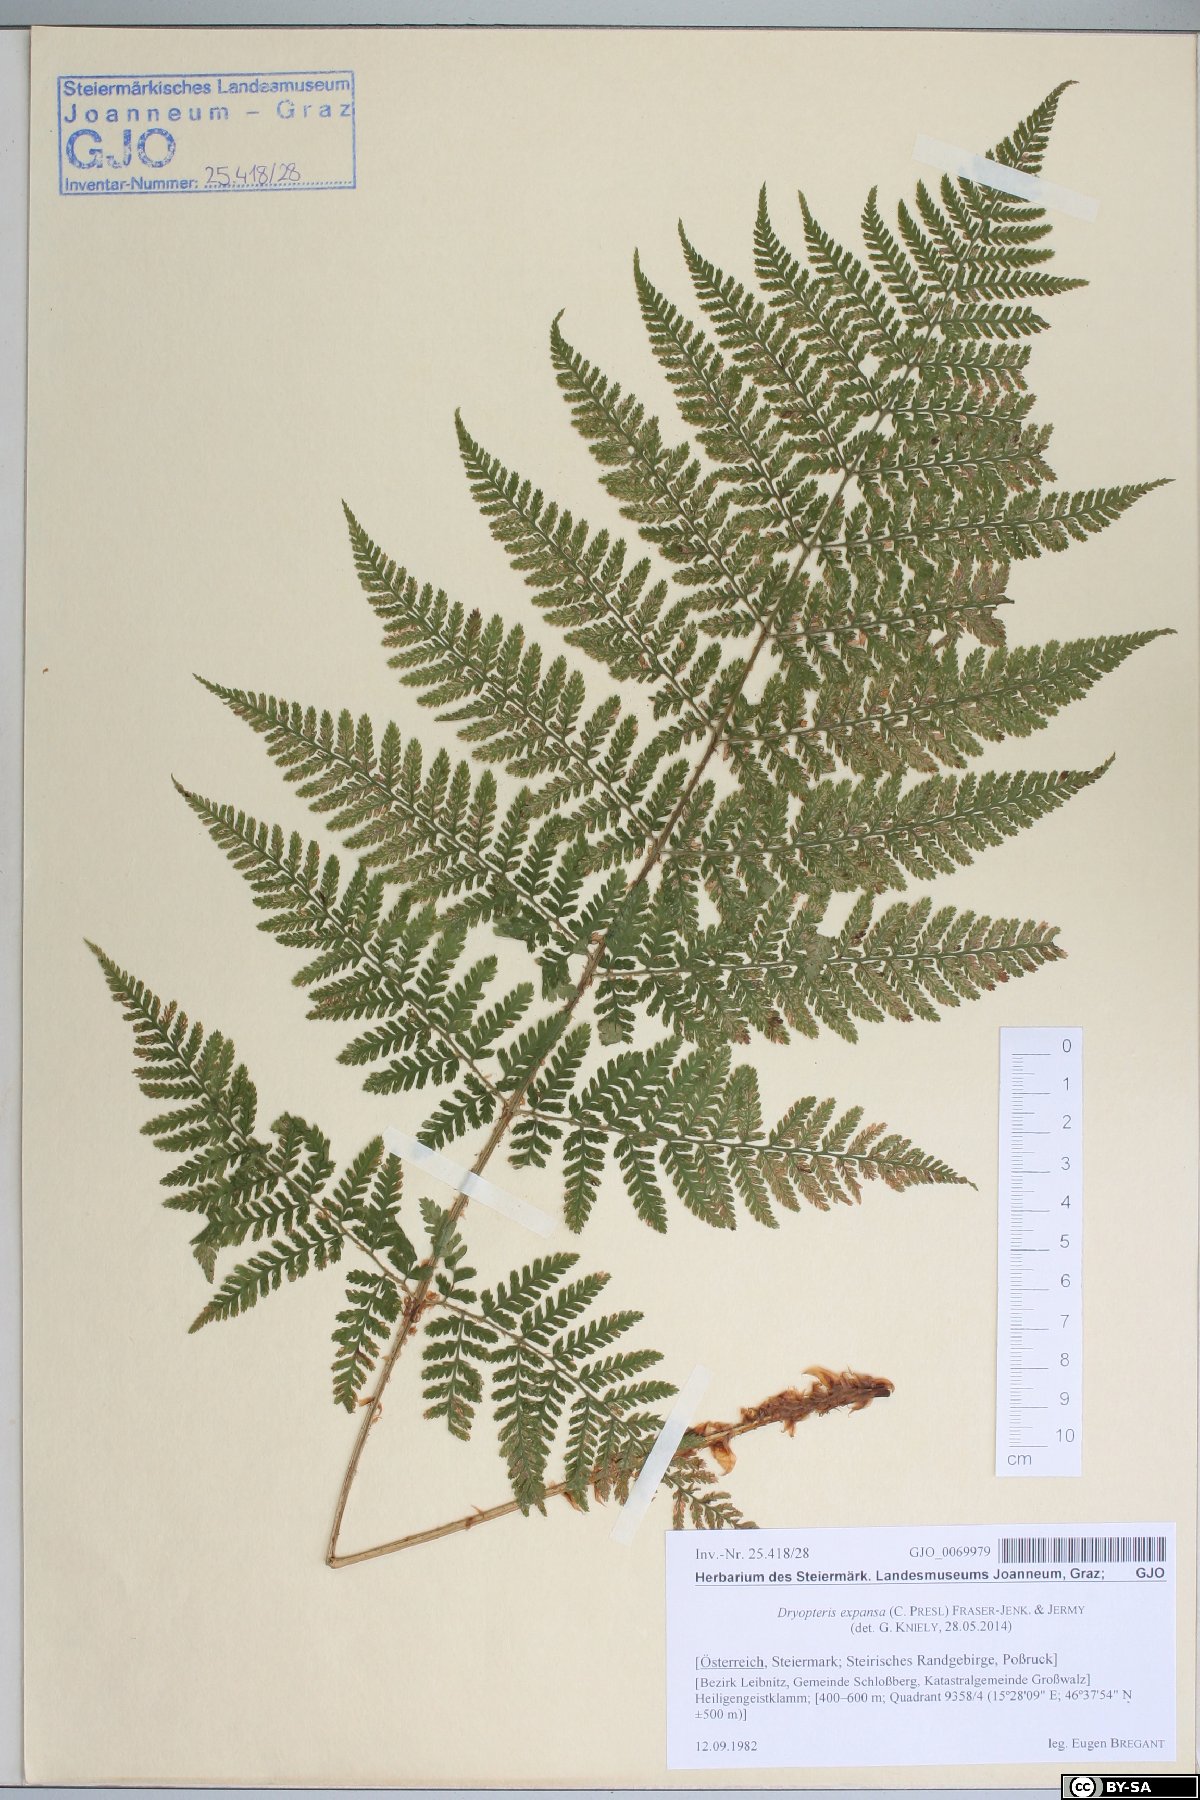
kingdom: Plantae
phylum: Tracheophyta
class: Polypodiopsida
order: Polypodiales
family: Dryopteridaceae
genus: Dryopteris
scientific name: Dryopteris expansa
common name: Northern buckler fern
